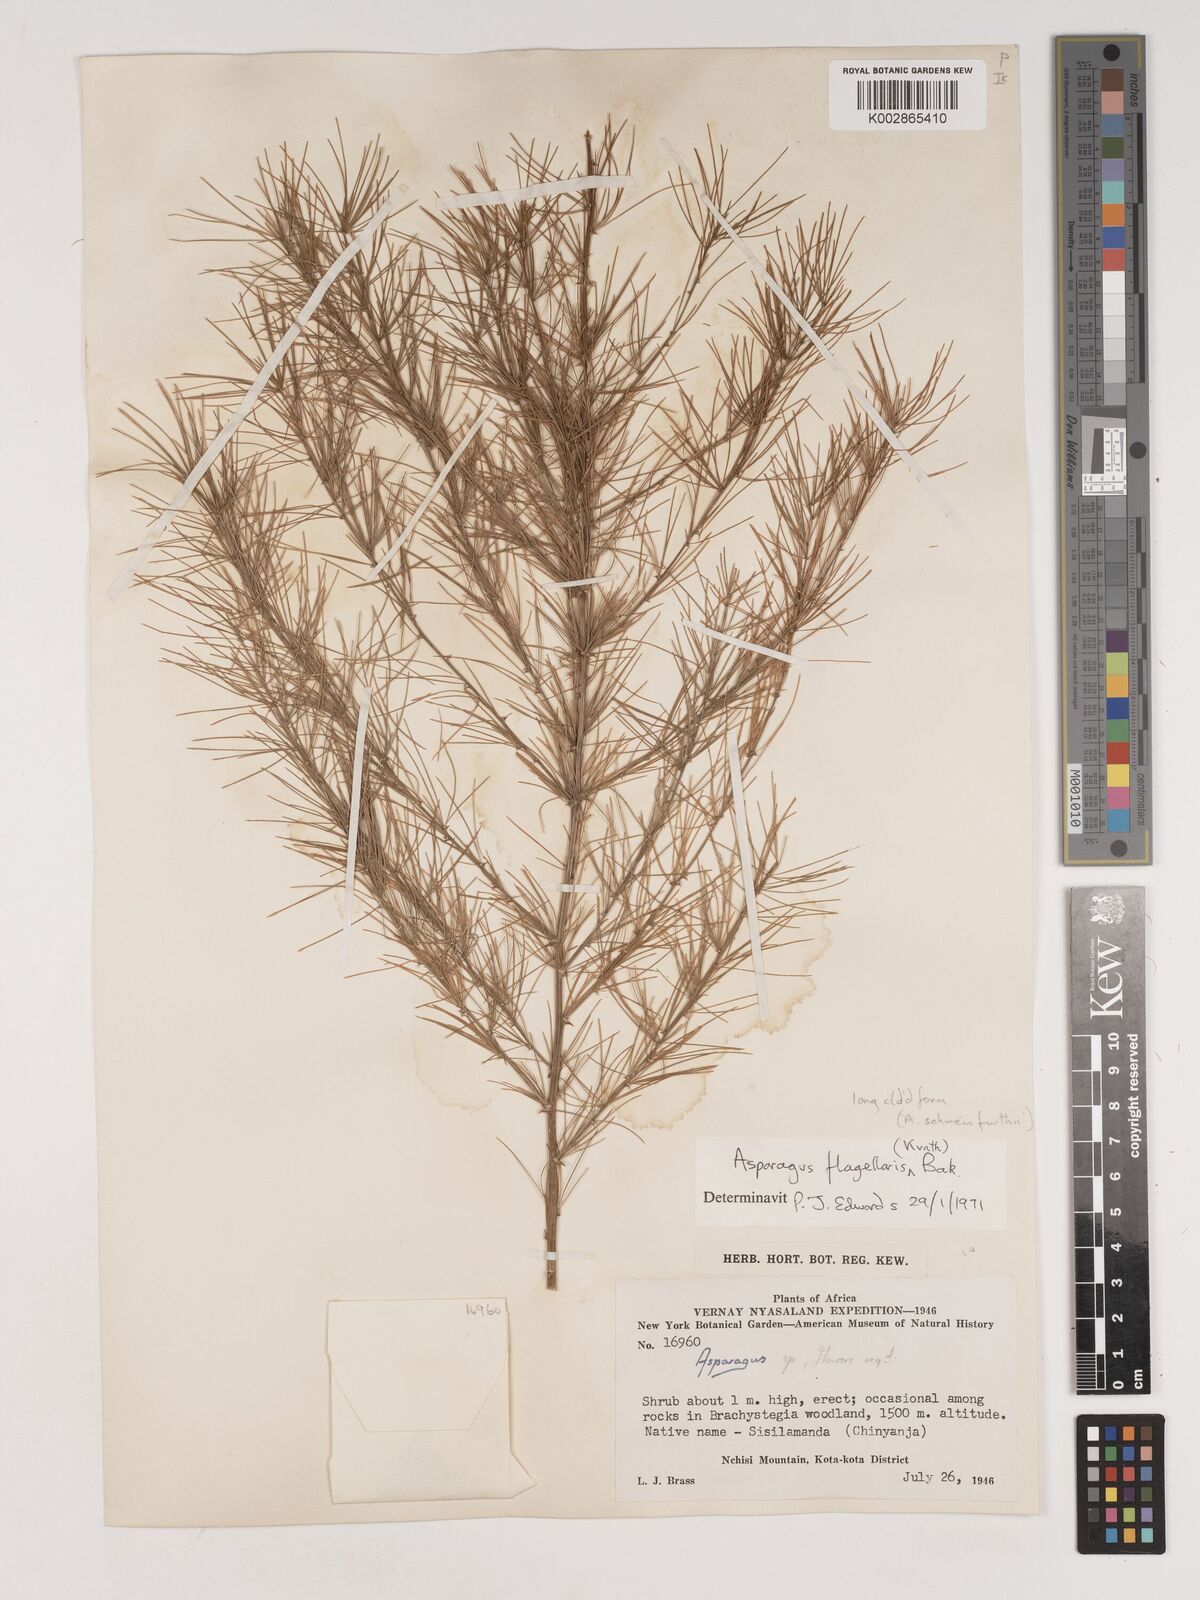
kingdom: Plantae
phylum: Tracheophyta
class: Liliopsida
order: Asparagales
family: Asparagaceae
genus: Asparagus
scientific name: Asparagus flagellaris
